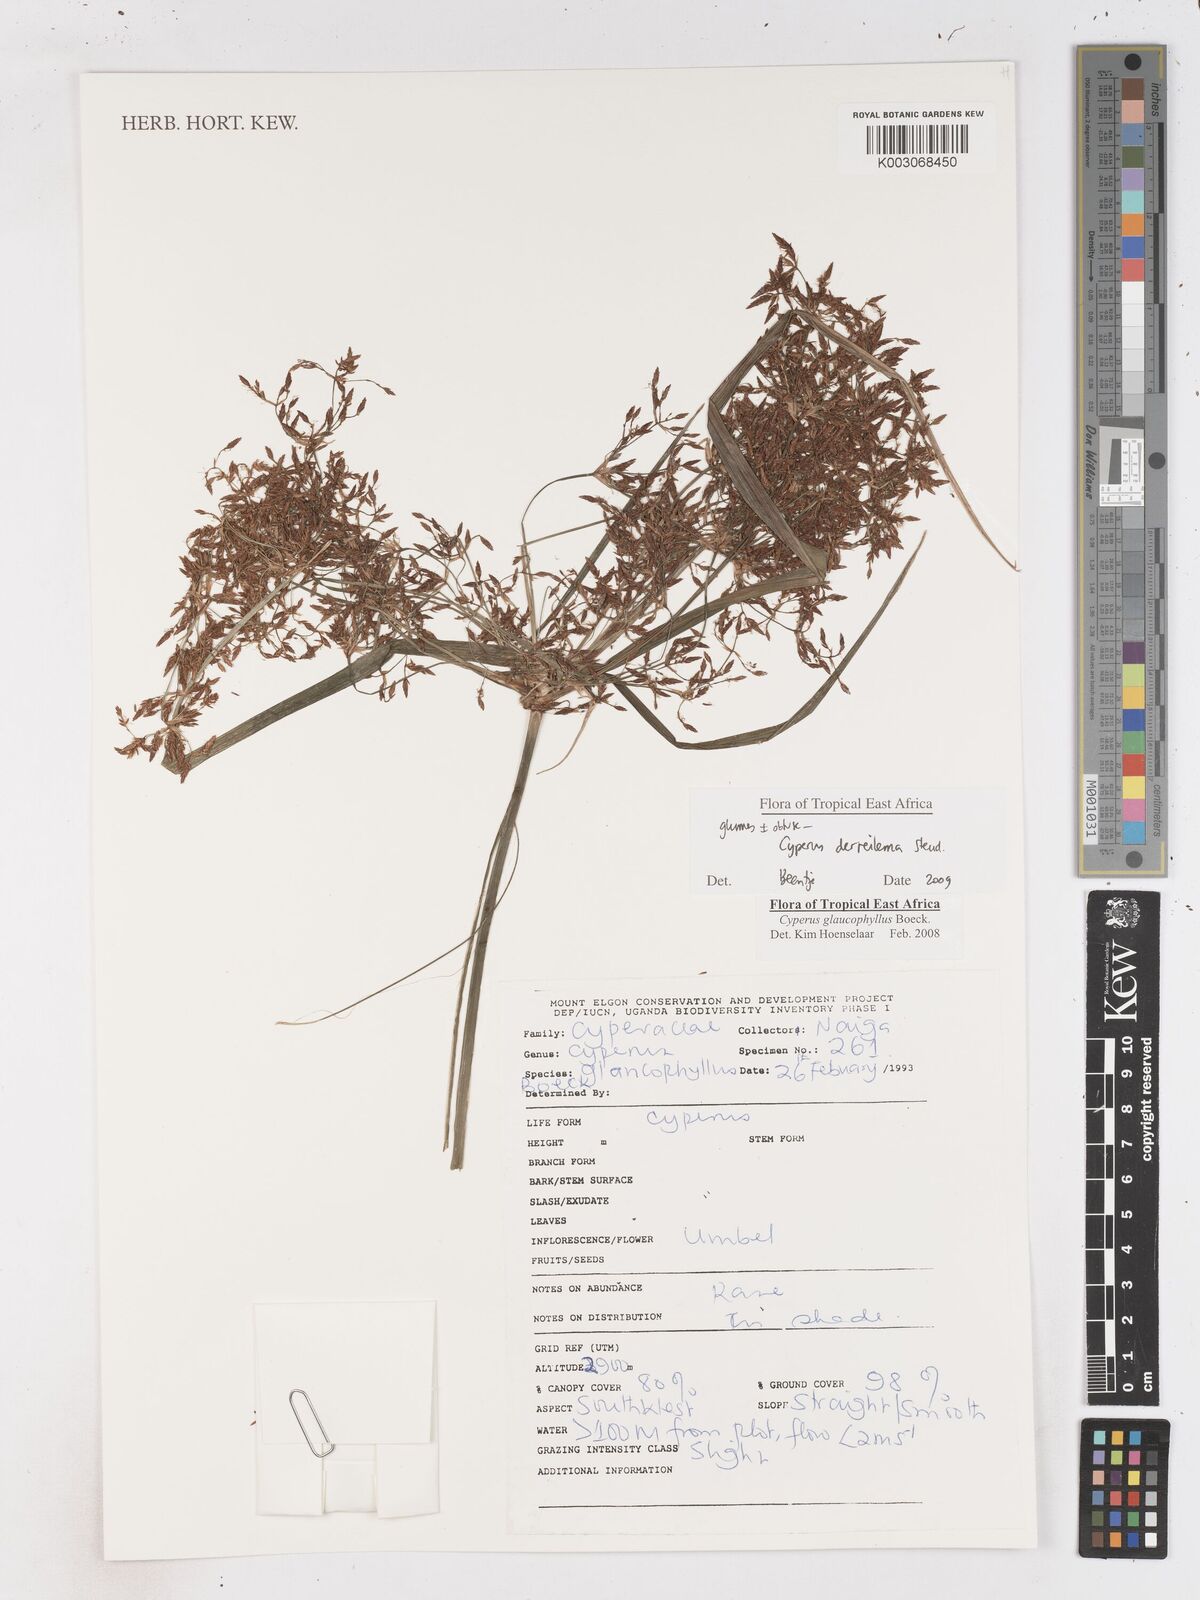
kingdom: Plantae
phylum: Tracheophyta
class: Liliopsida
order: Poales
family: Cyperaceae
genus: Cyperus
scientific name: Cyperus derreilema
